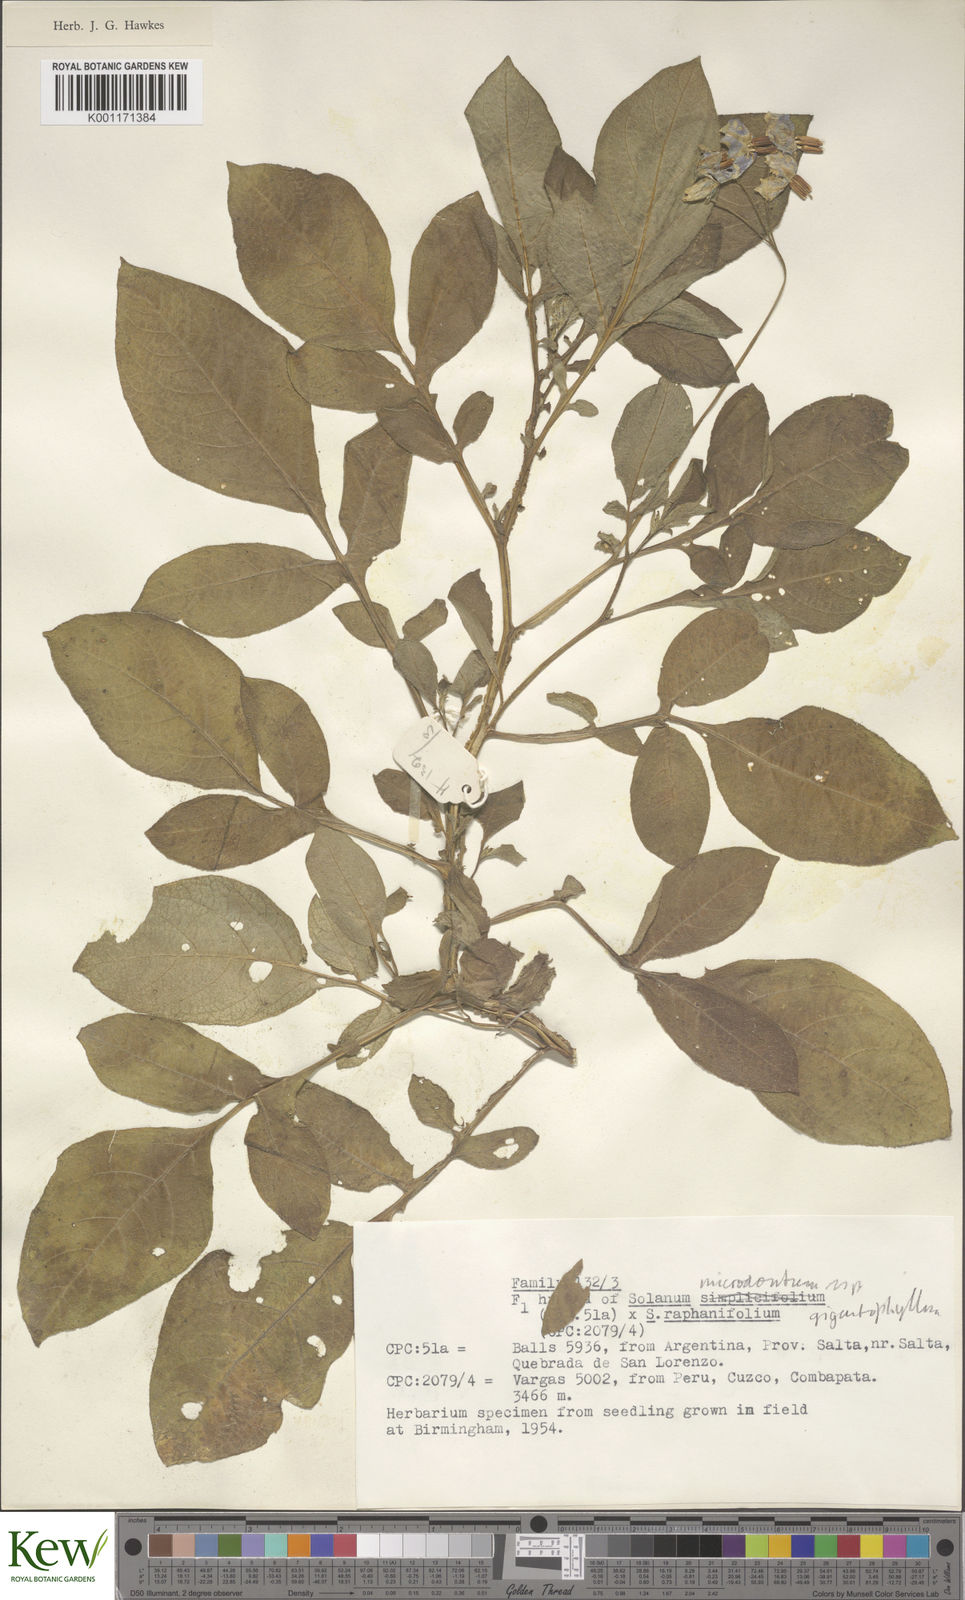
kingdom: Plantae
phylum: Tracheophyta
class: Magnoliopsida
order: Solanales
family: Solanaceae
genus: Solanum
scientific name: Solanum microdontum
